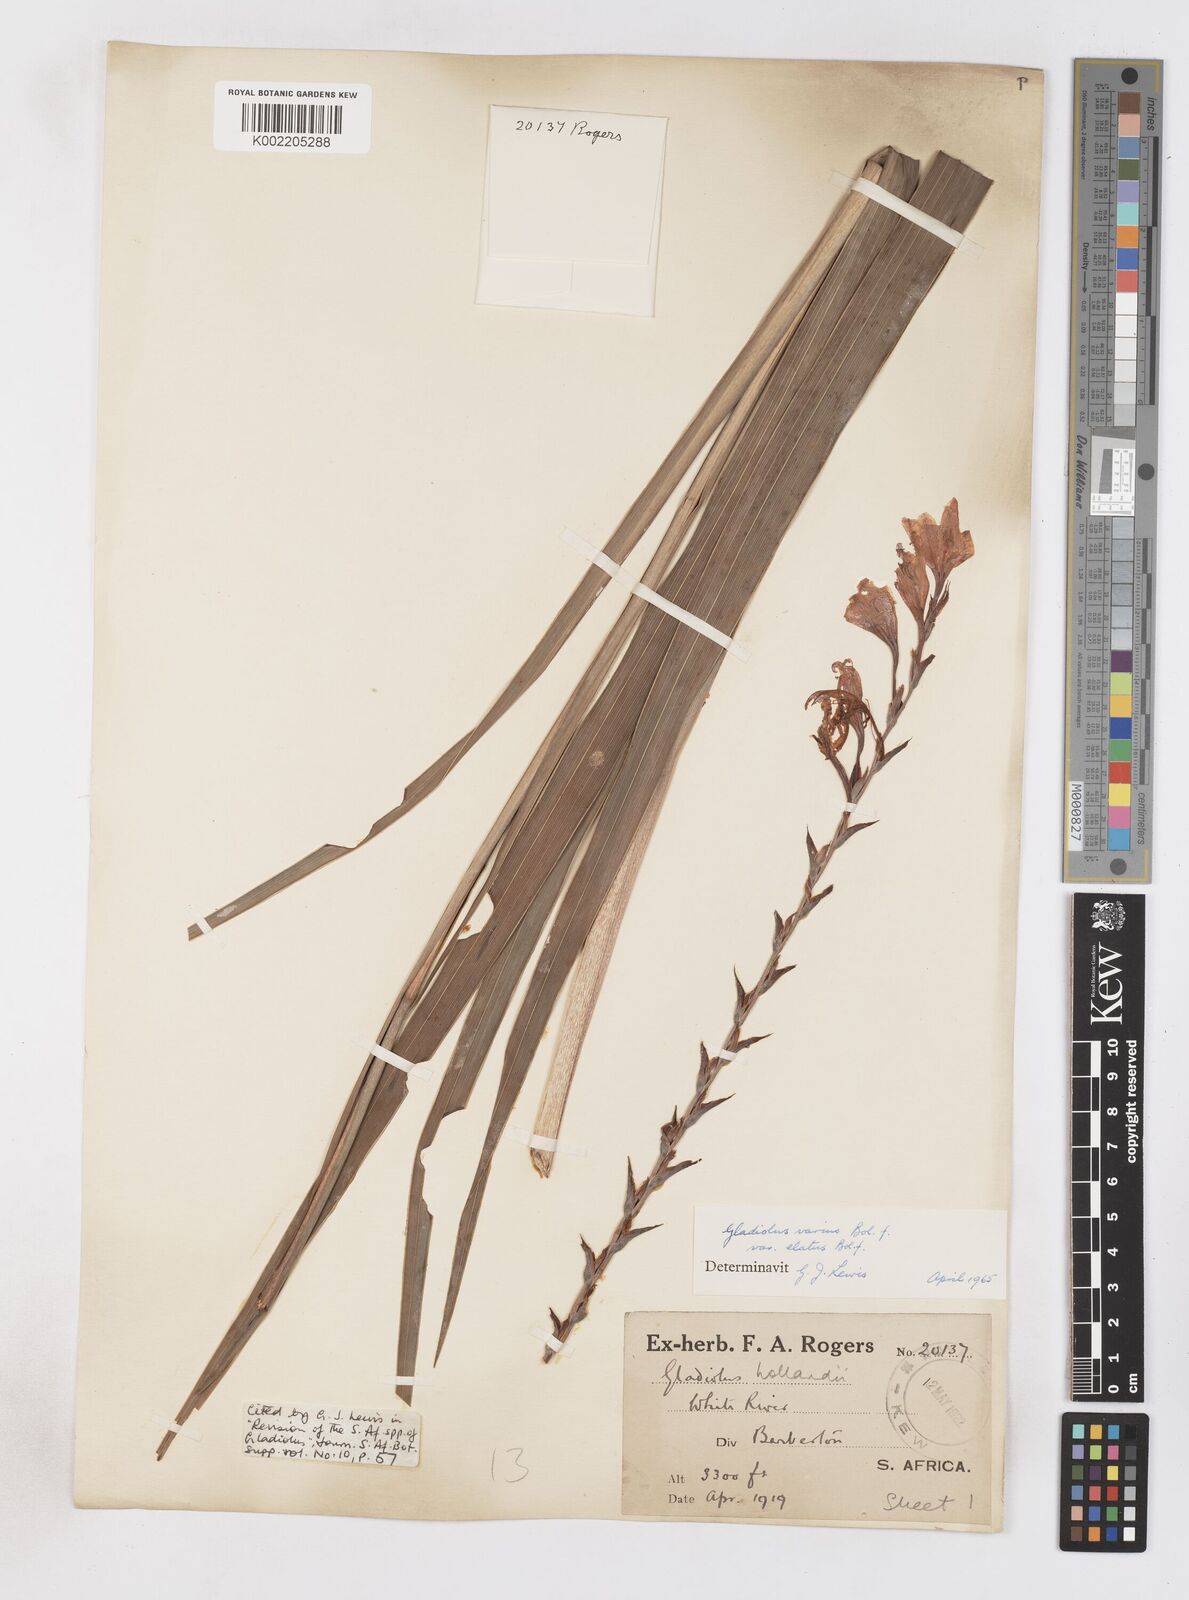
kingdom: Plantae
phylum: Tracheophyta
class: Liliopsida
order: Asparagales
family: Iridaceae
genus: Gladiolus
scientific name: Gladiolus hollandii
